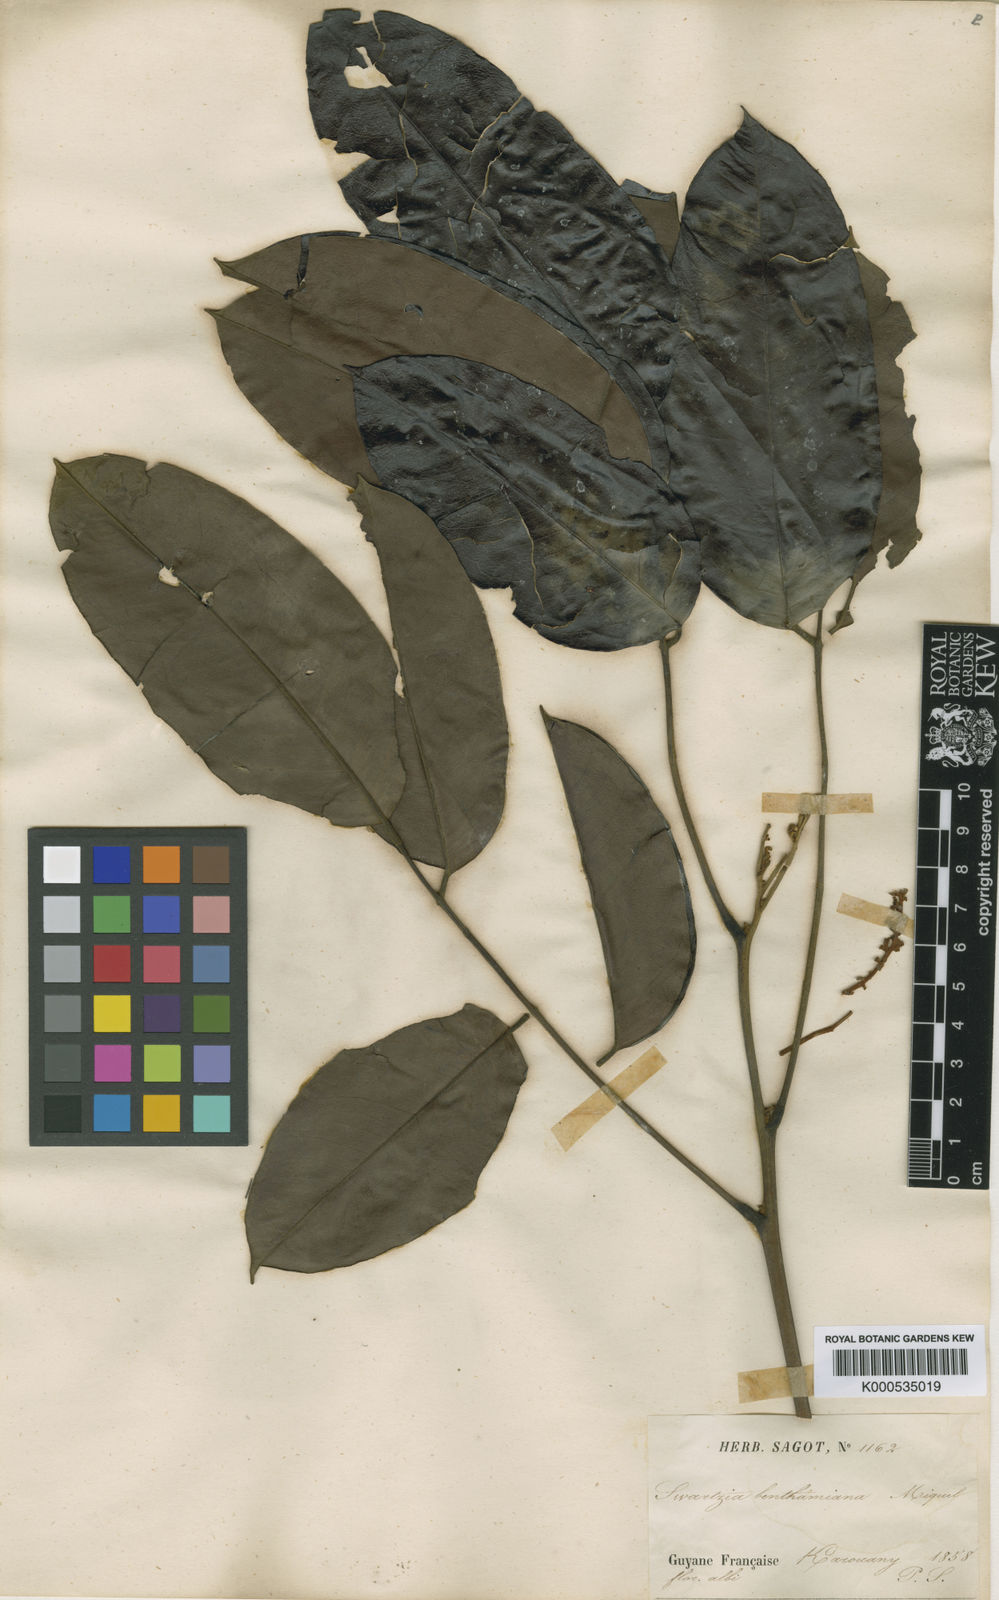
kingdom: Plantae
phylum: Tracheophyta
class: Magnoliopsida
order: Fabales
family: Fabaceae
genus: Swartzia
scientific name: Swartzia benthamiana
